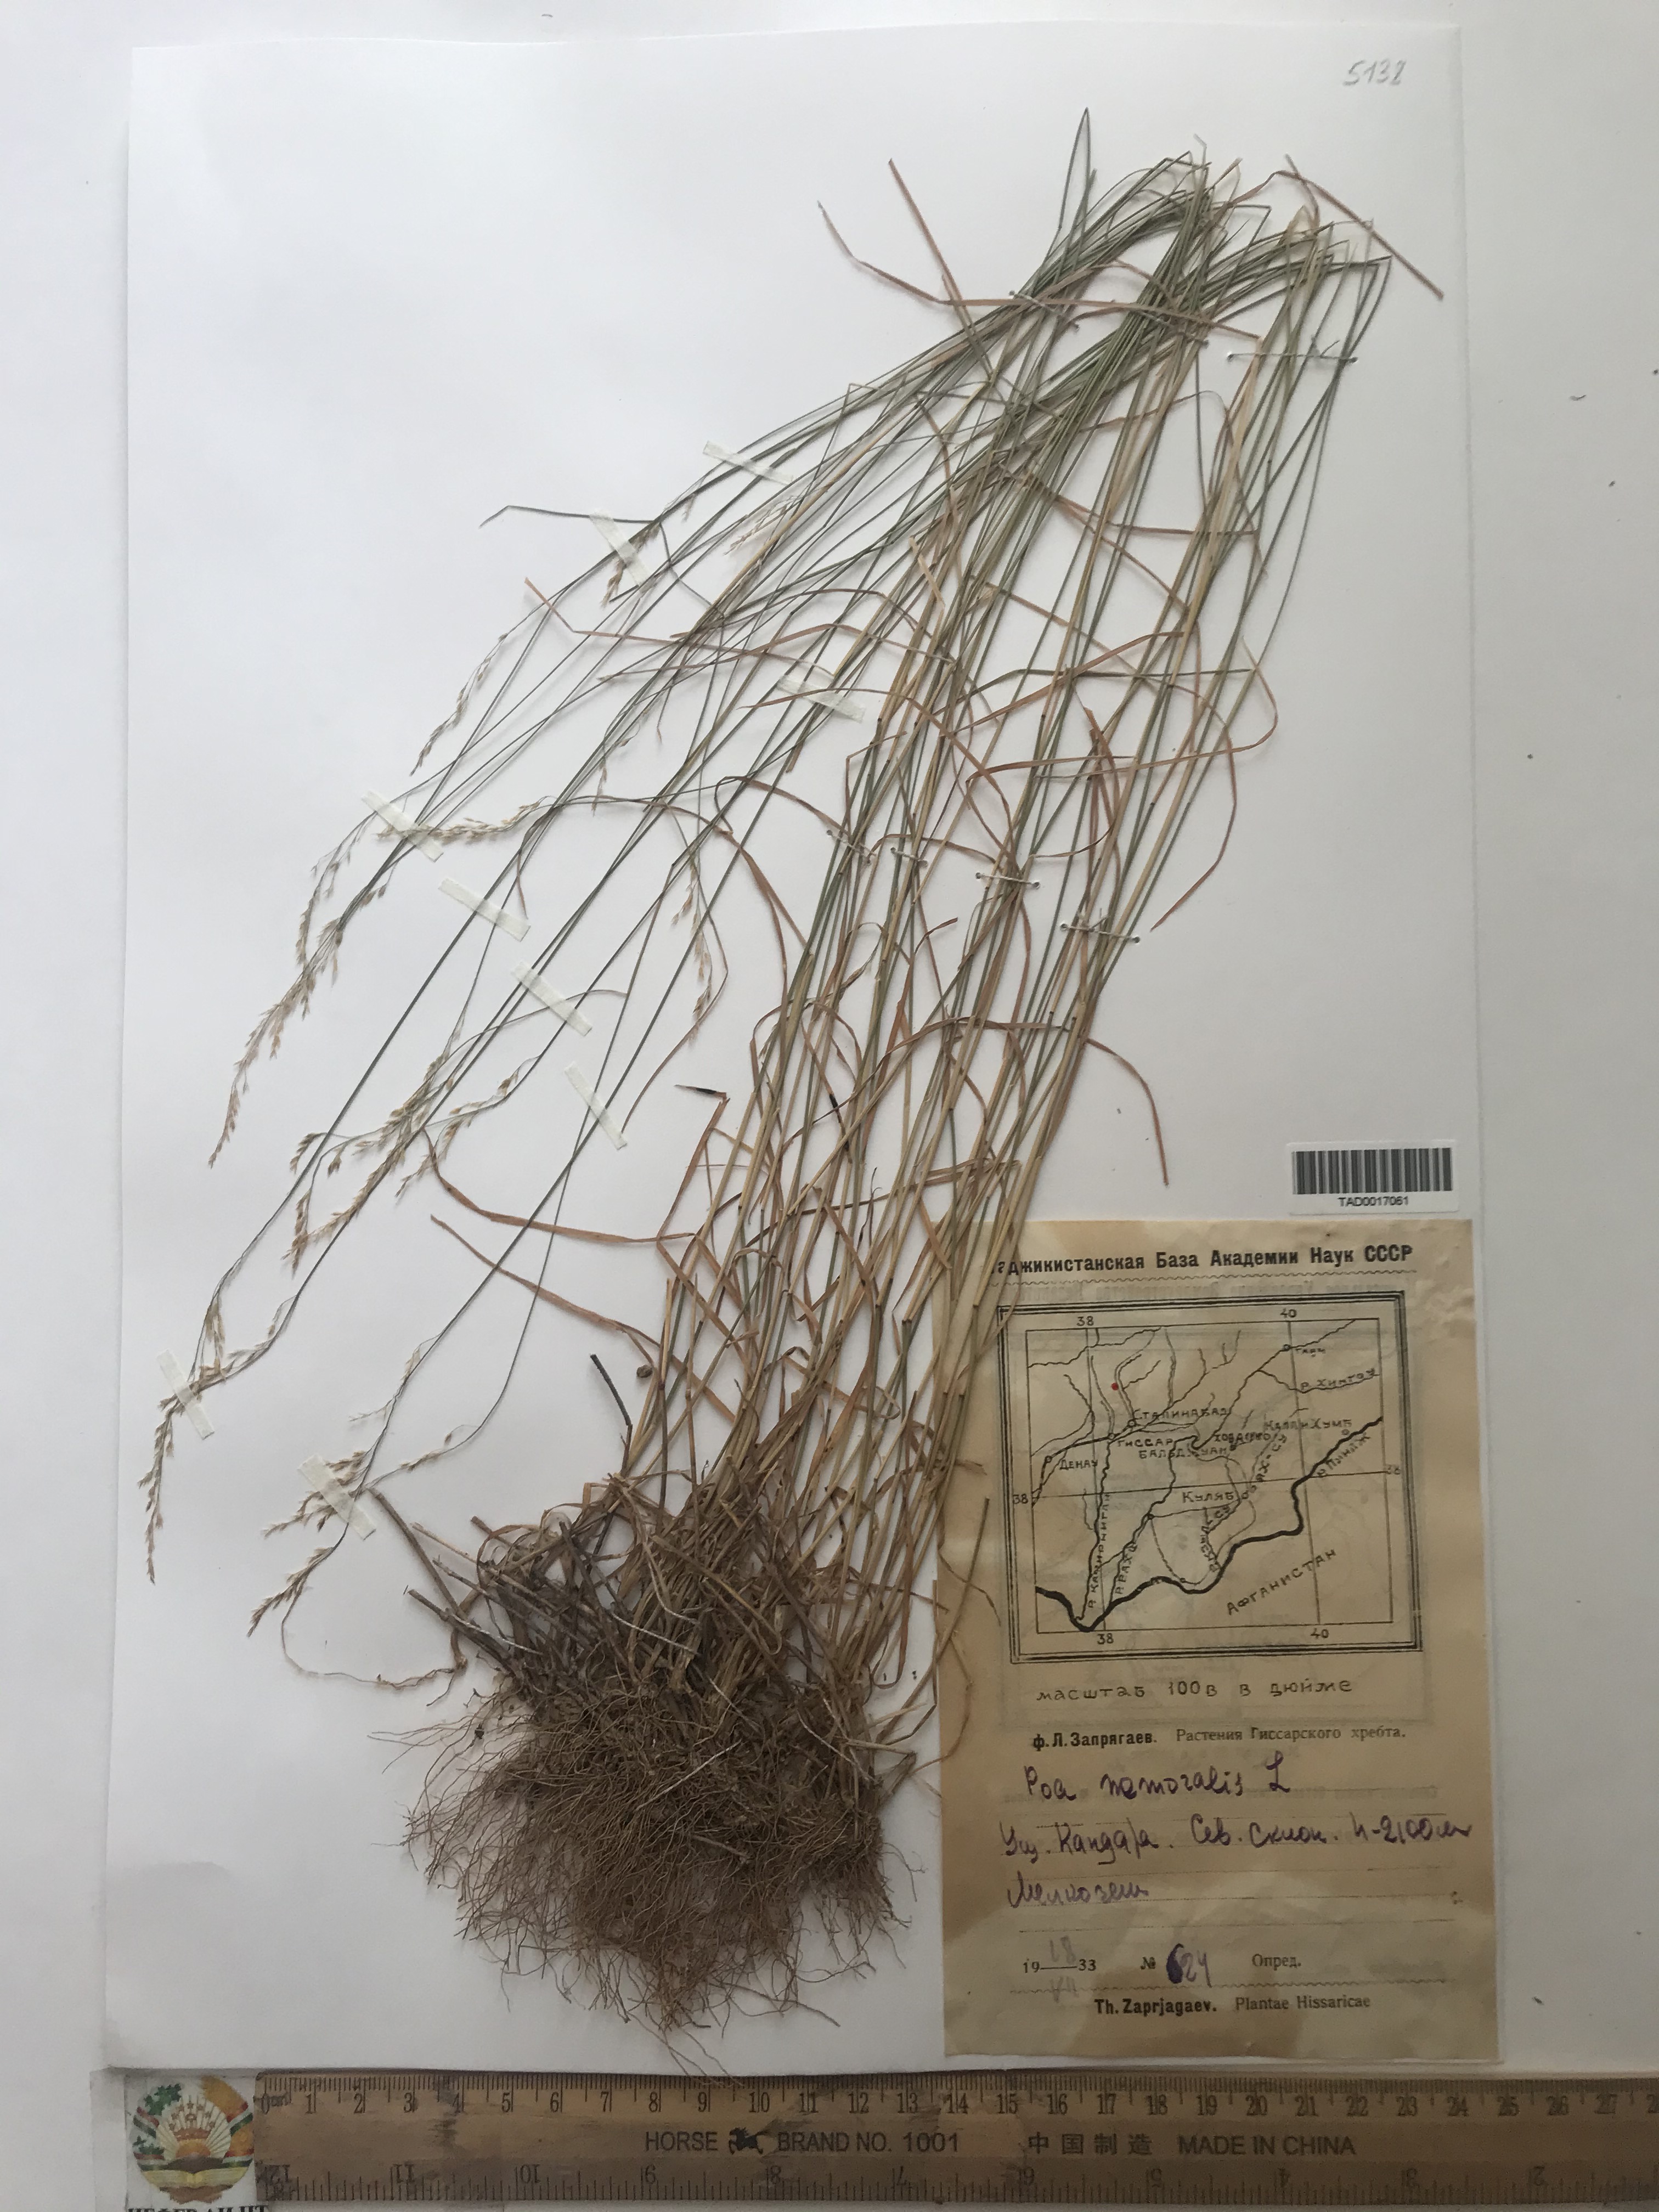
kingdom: Plantae
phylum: Tracheophyta
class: Liliopsida
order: Poales
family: Poaceae
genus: Poa
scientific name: Poa nemoralis
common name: Wood bluegrass
